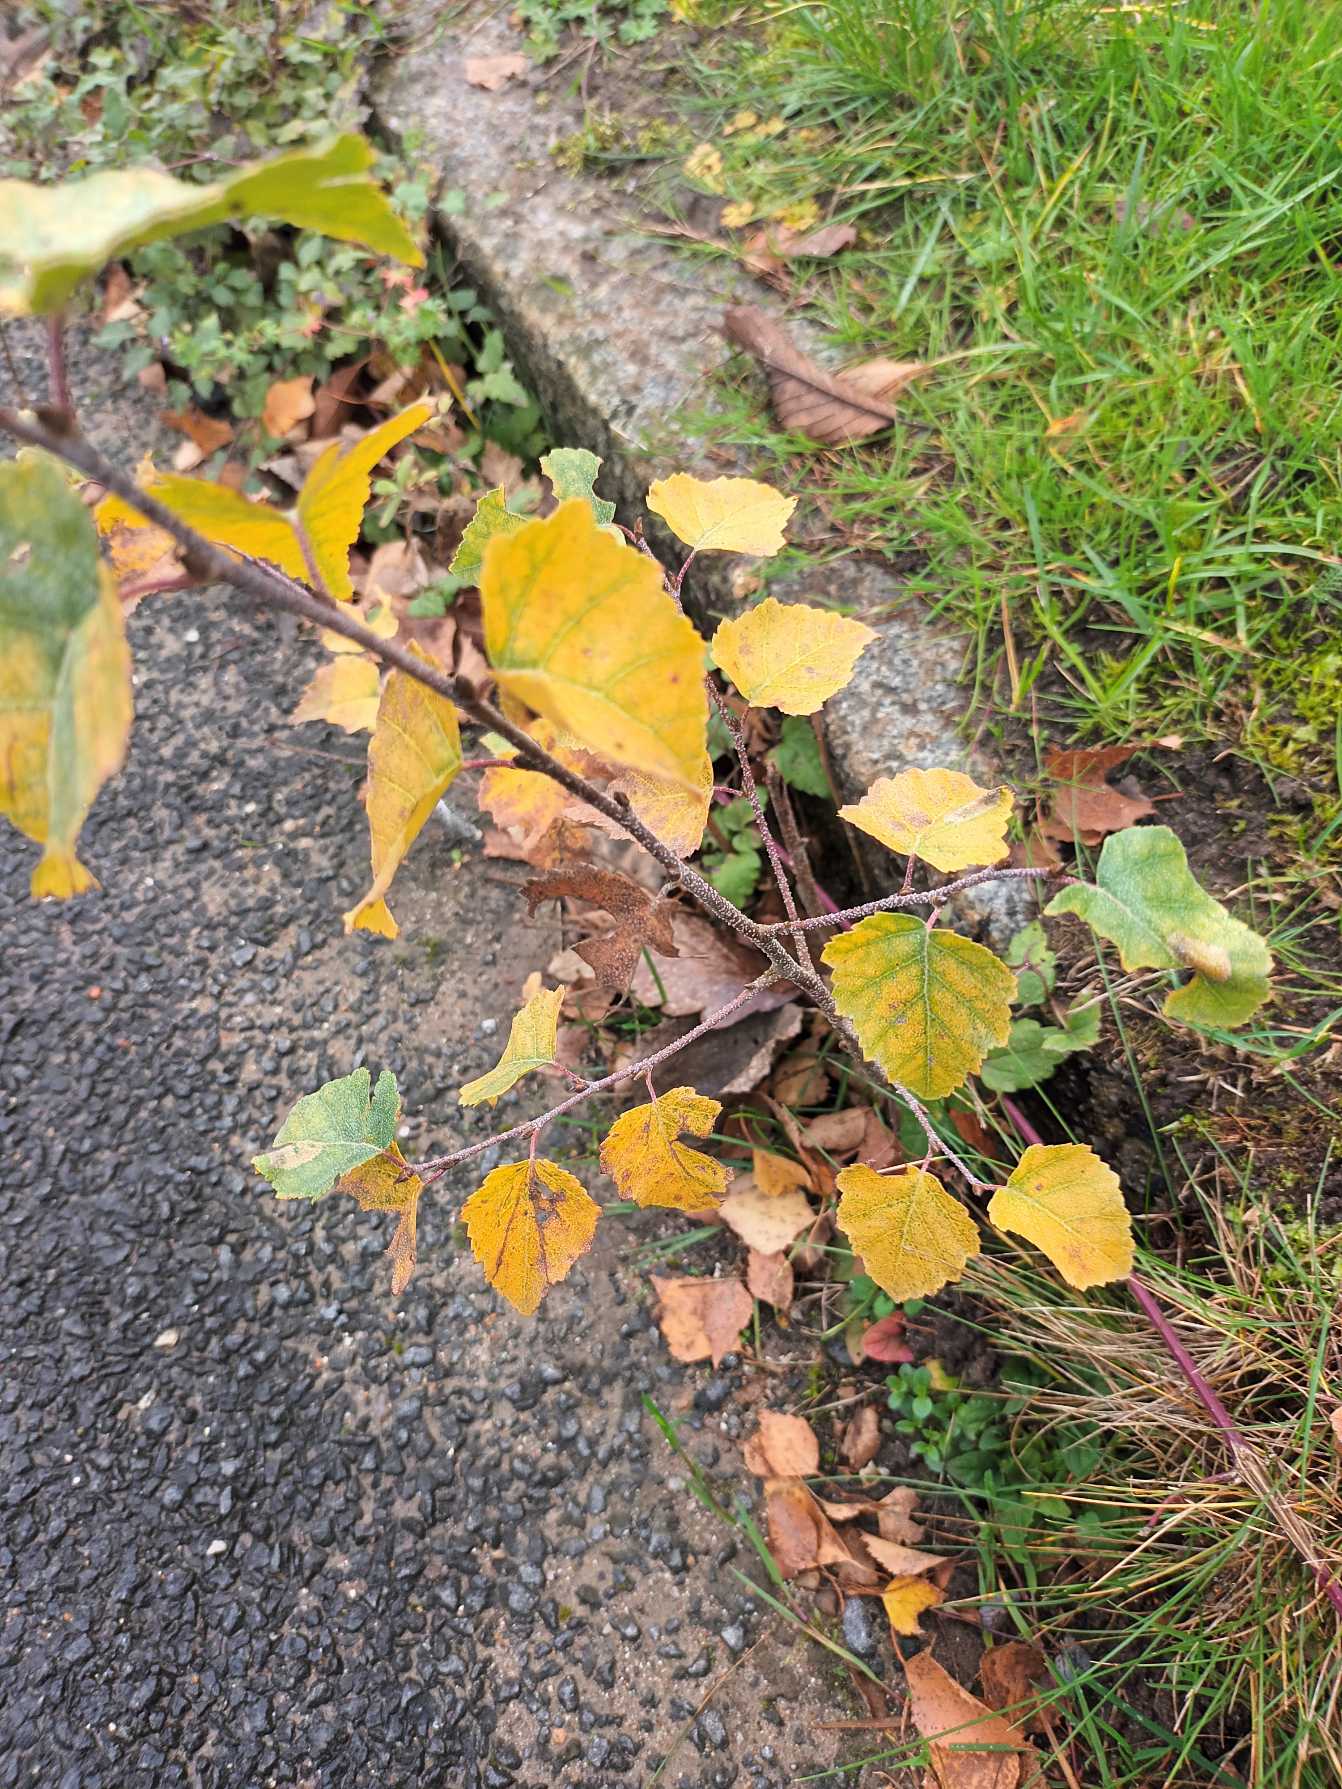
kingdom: Plantae
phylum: Tracheophyta
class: Magnoliopsida
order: Fagales
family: Betulaceae
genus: Betula
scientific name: Betula pendula
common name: Vorte-birk
